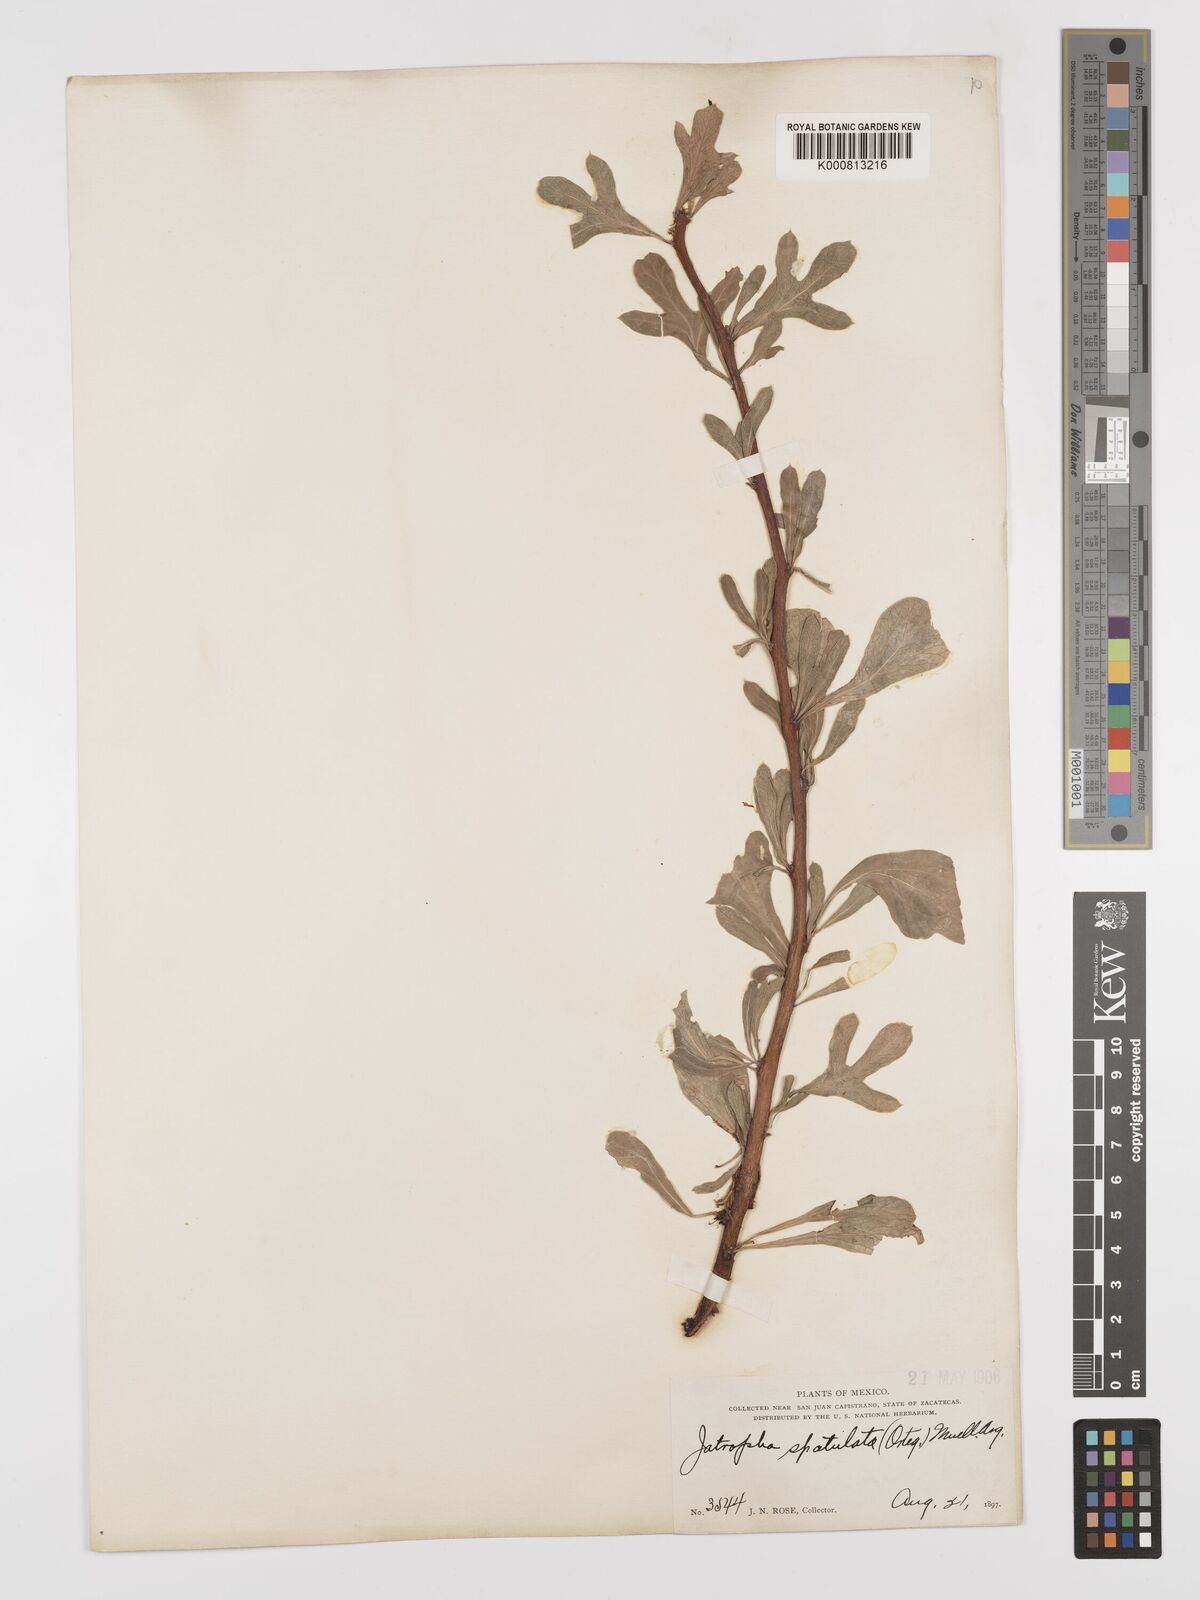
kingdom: Plantae
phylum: Tracheophyta
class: Magnoliopsida
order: Malpighiales
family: Euphorbiaceae
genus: Jatropha
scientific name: Jatropha
